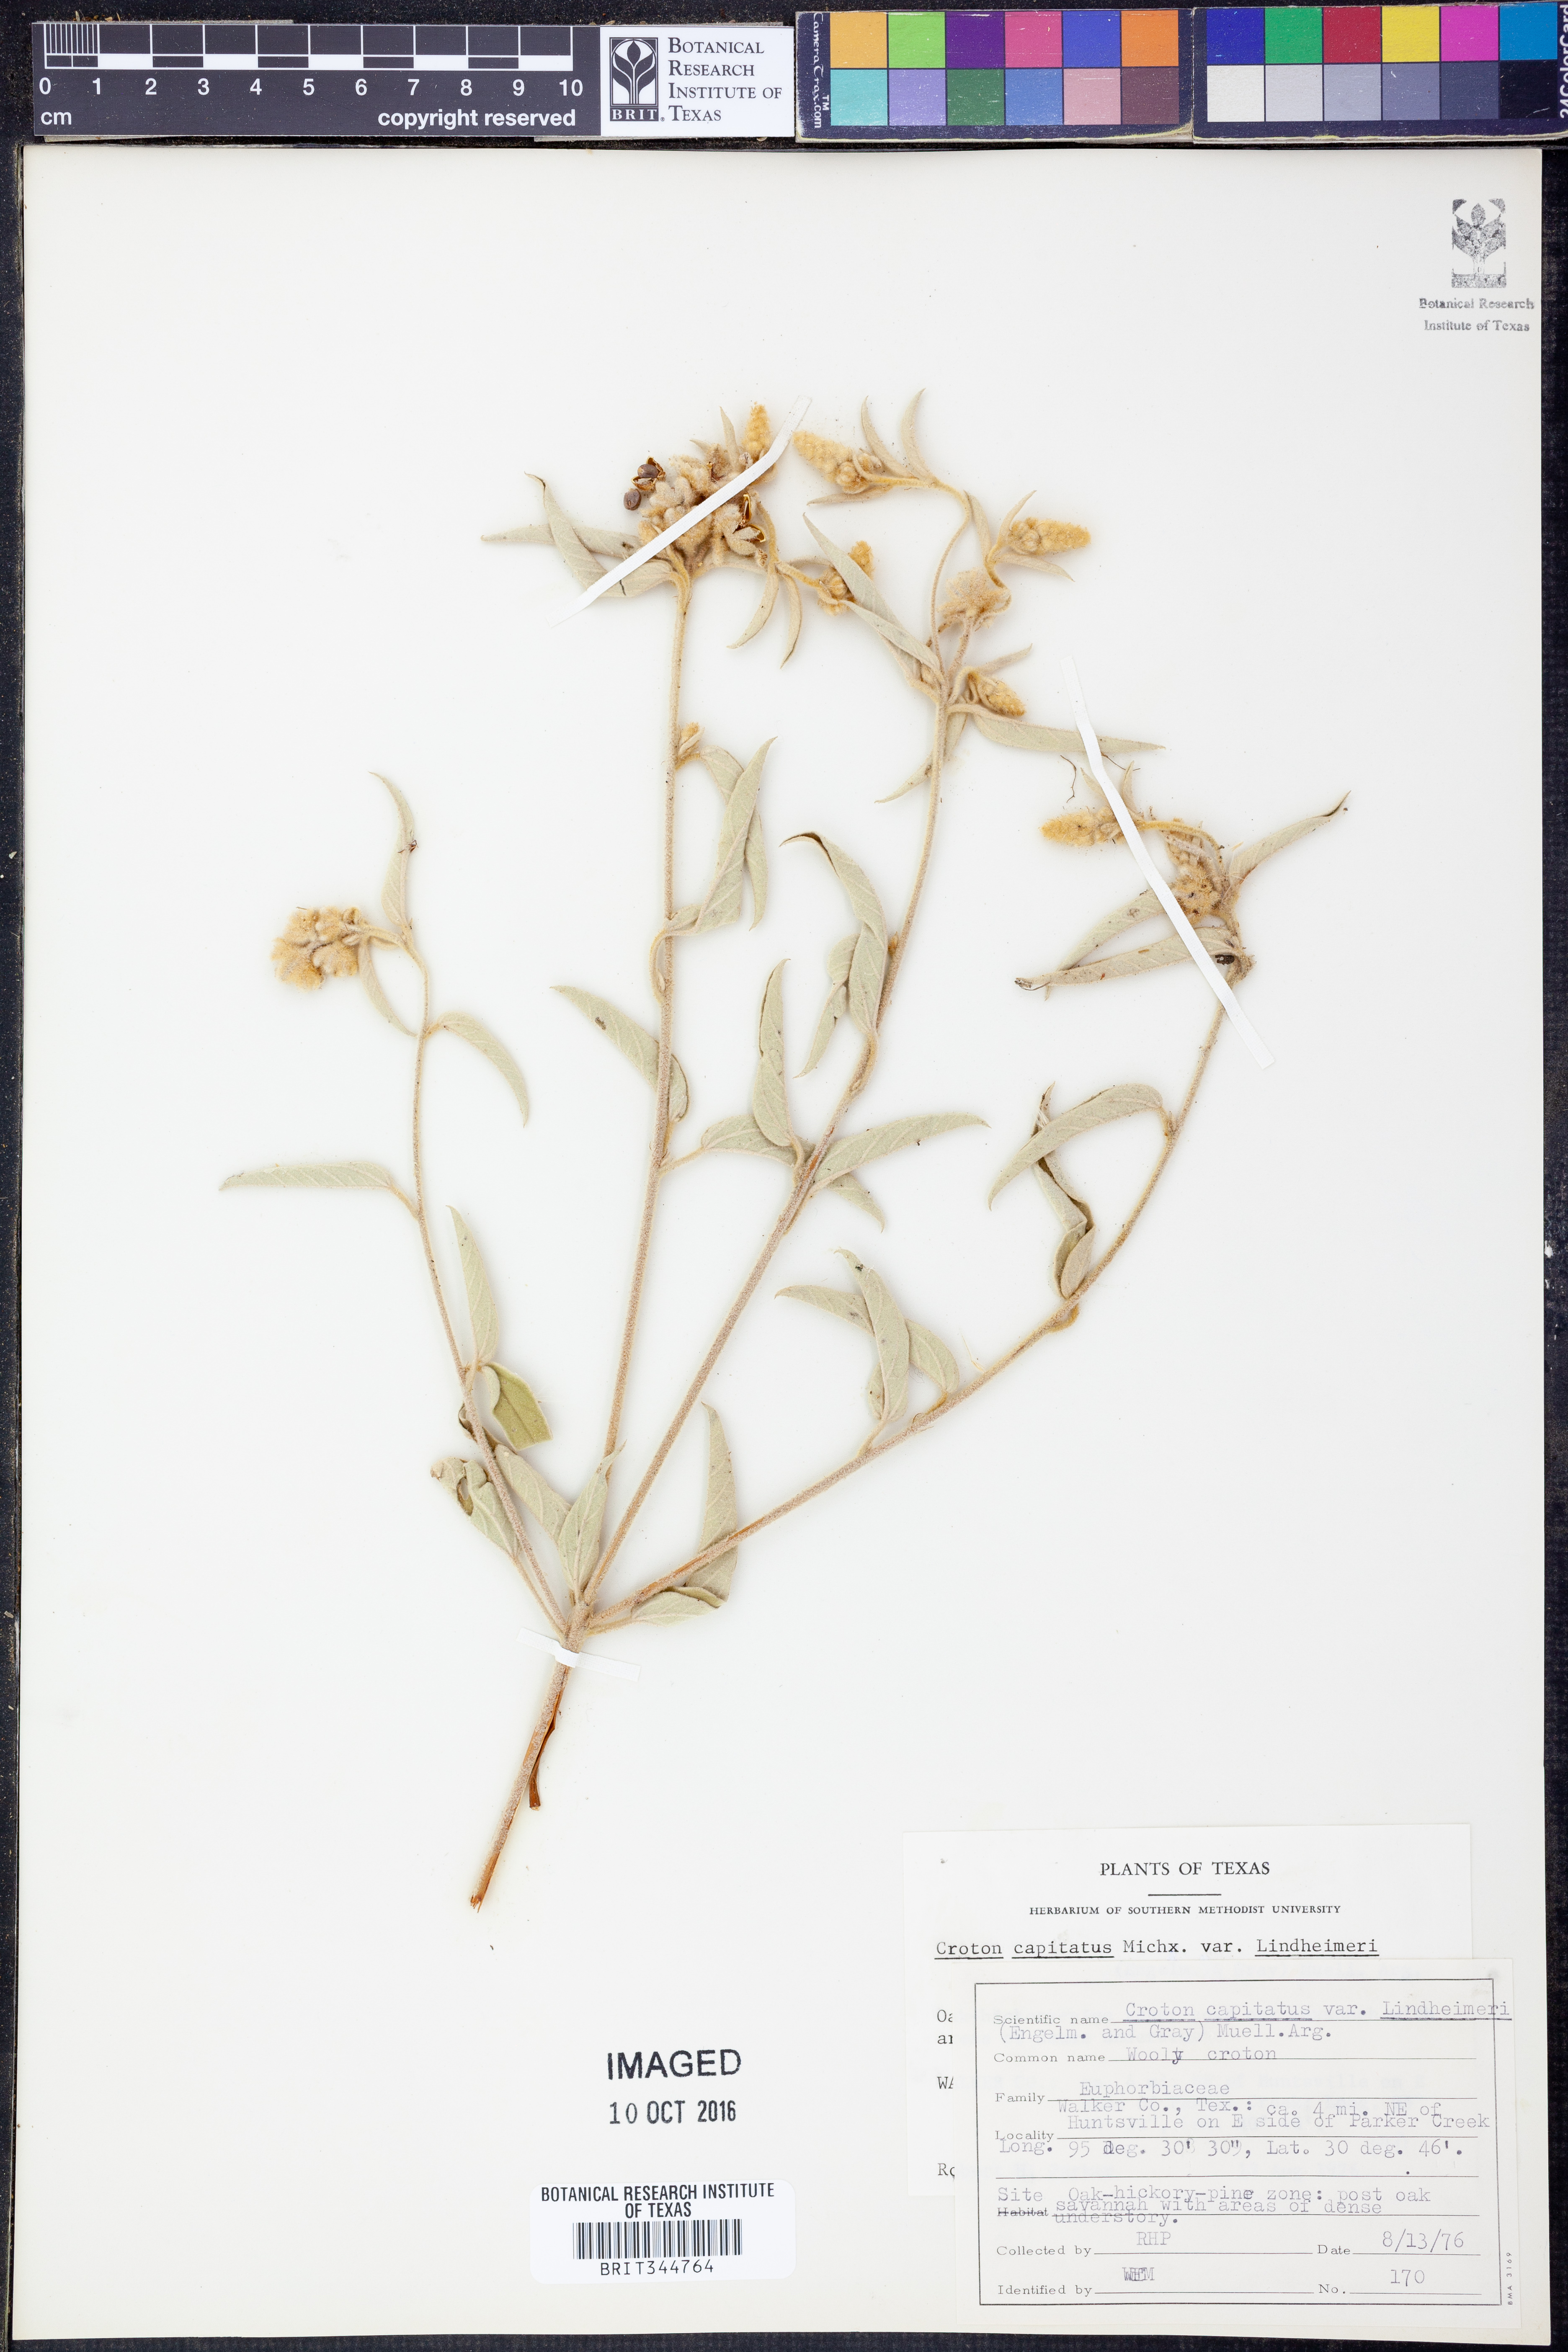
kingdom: Plantae
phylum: Tracheophyta
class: Magnoliopsida
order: Malpighiales
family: Euphorbiaceae
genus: Croton
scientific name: Croton lindheimeri
